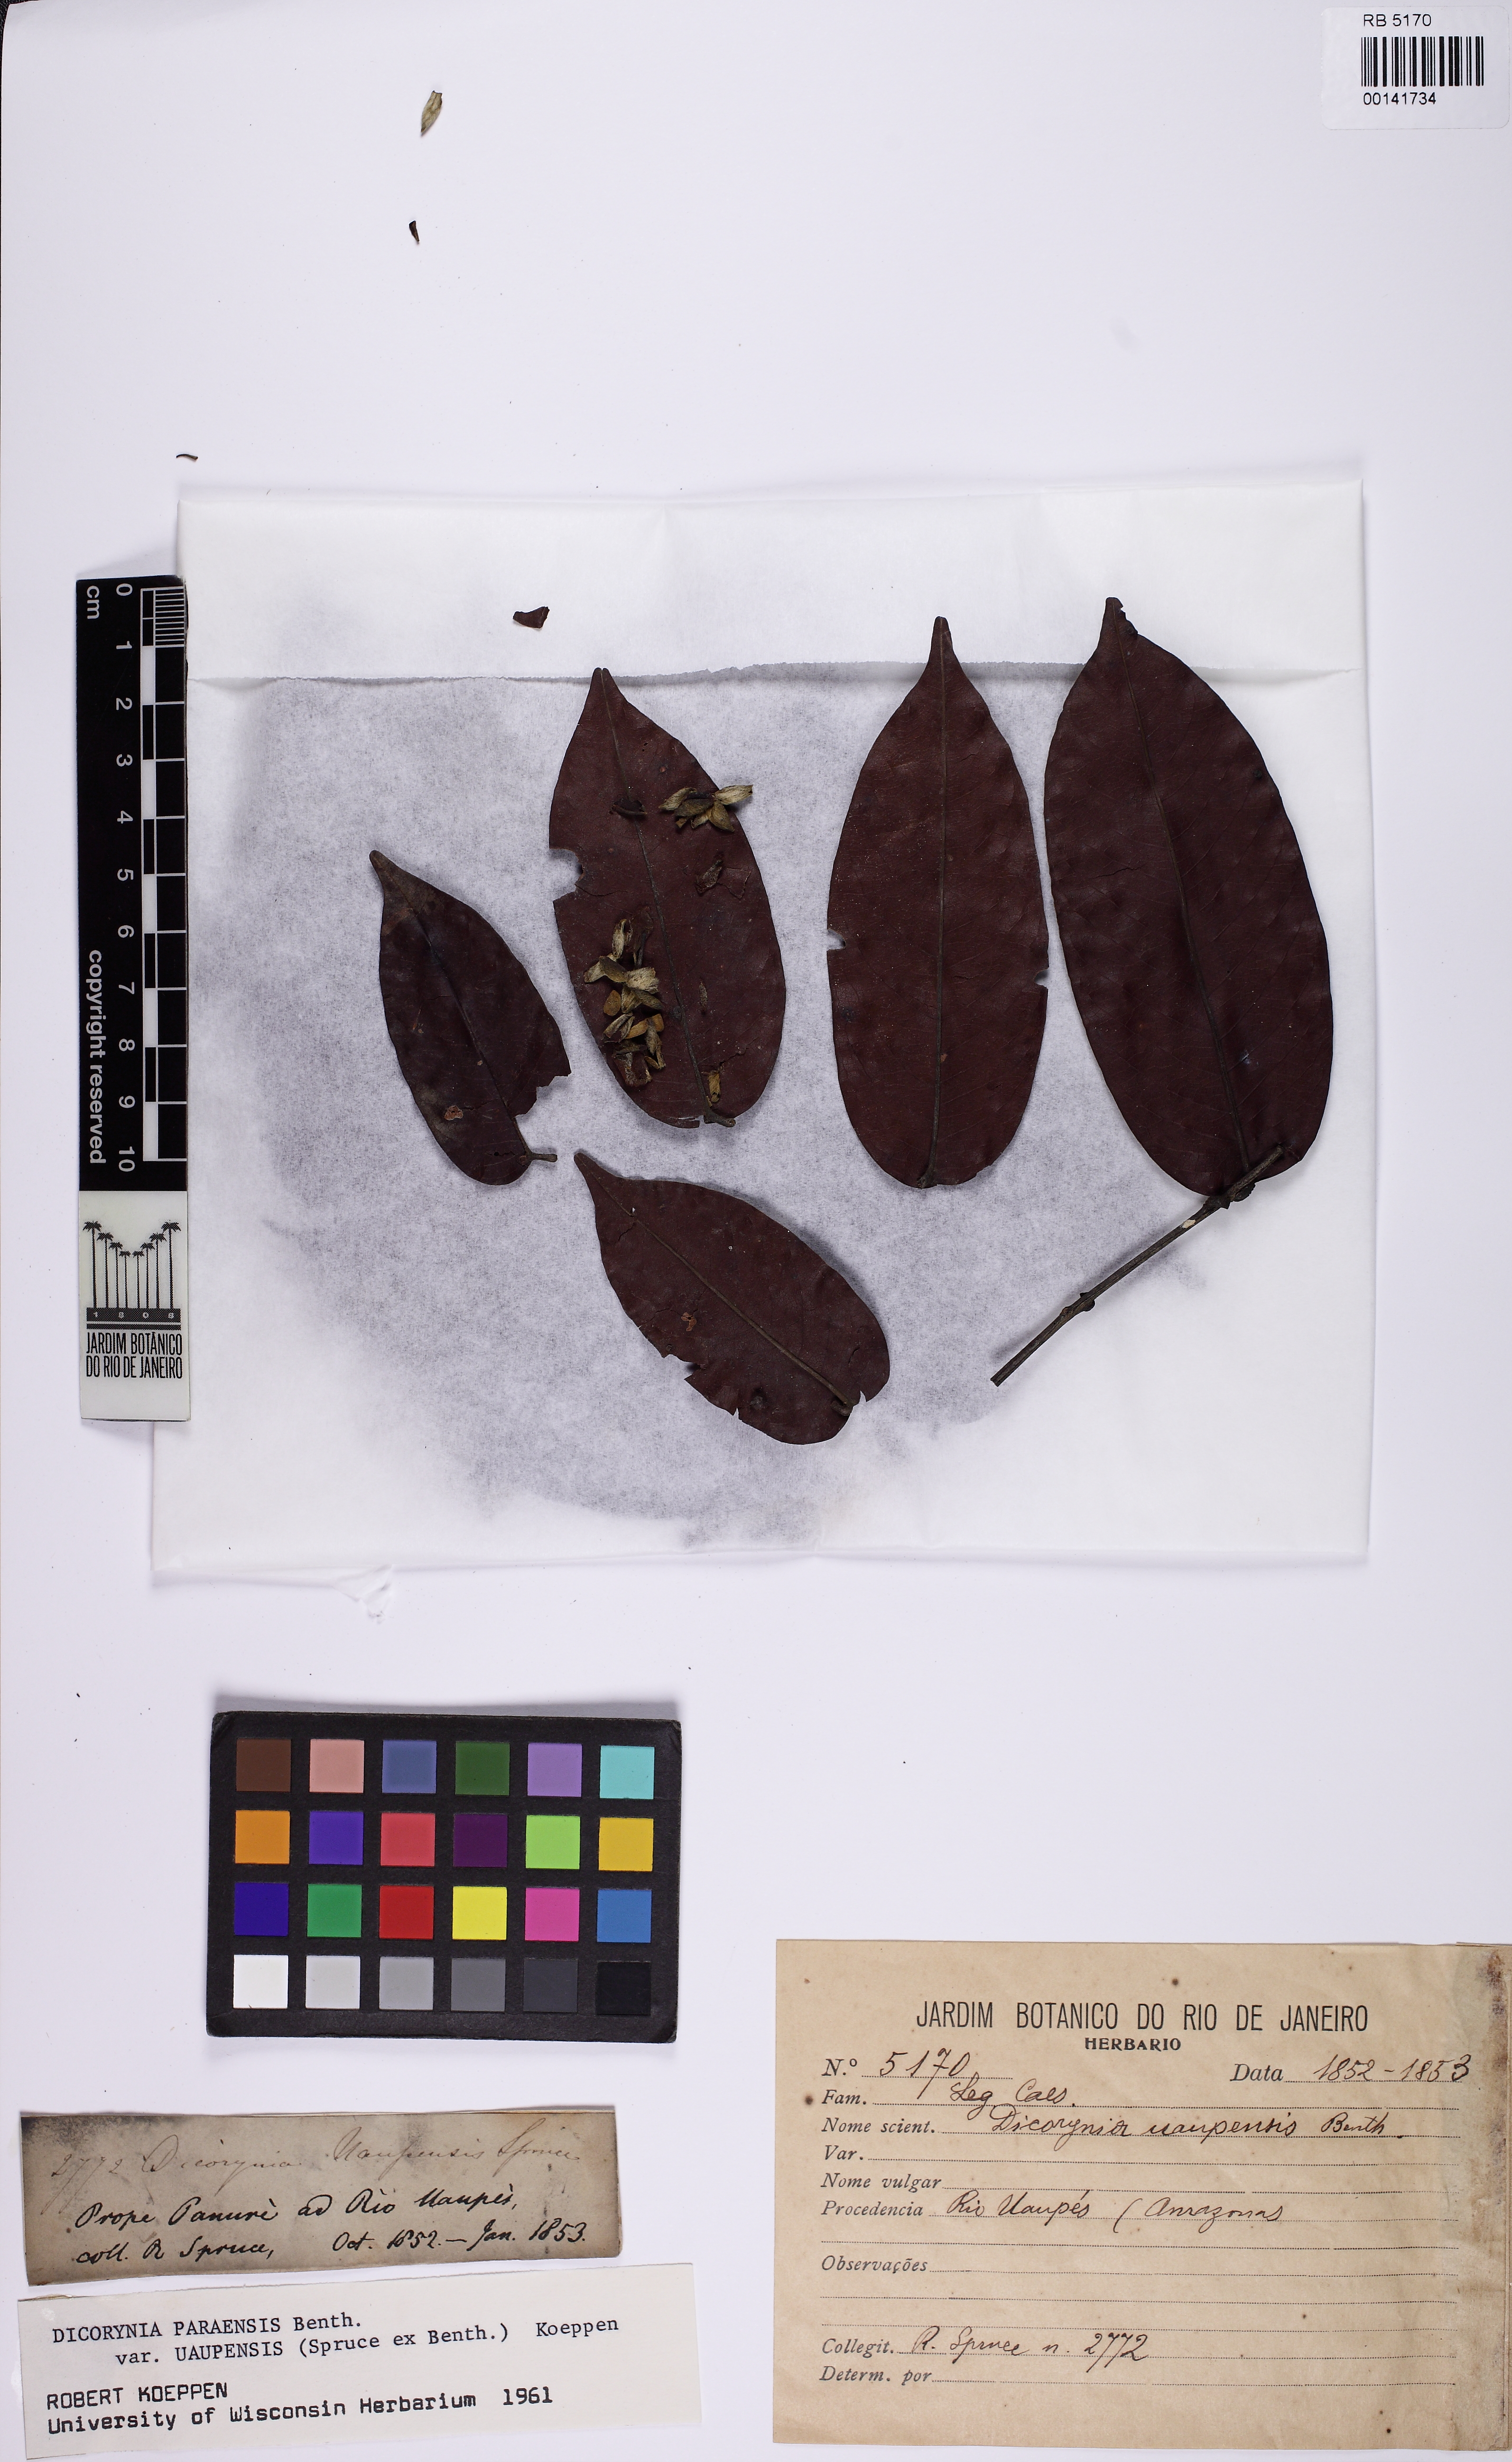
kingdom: Plantae
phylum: Tracheophyta
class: Magnoliopsida
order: Fabales
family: Fabaceae
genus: Dicorynia
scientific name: Dicorynia paraensis
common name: Angelique
